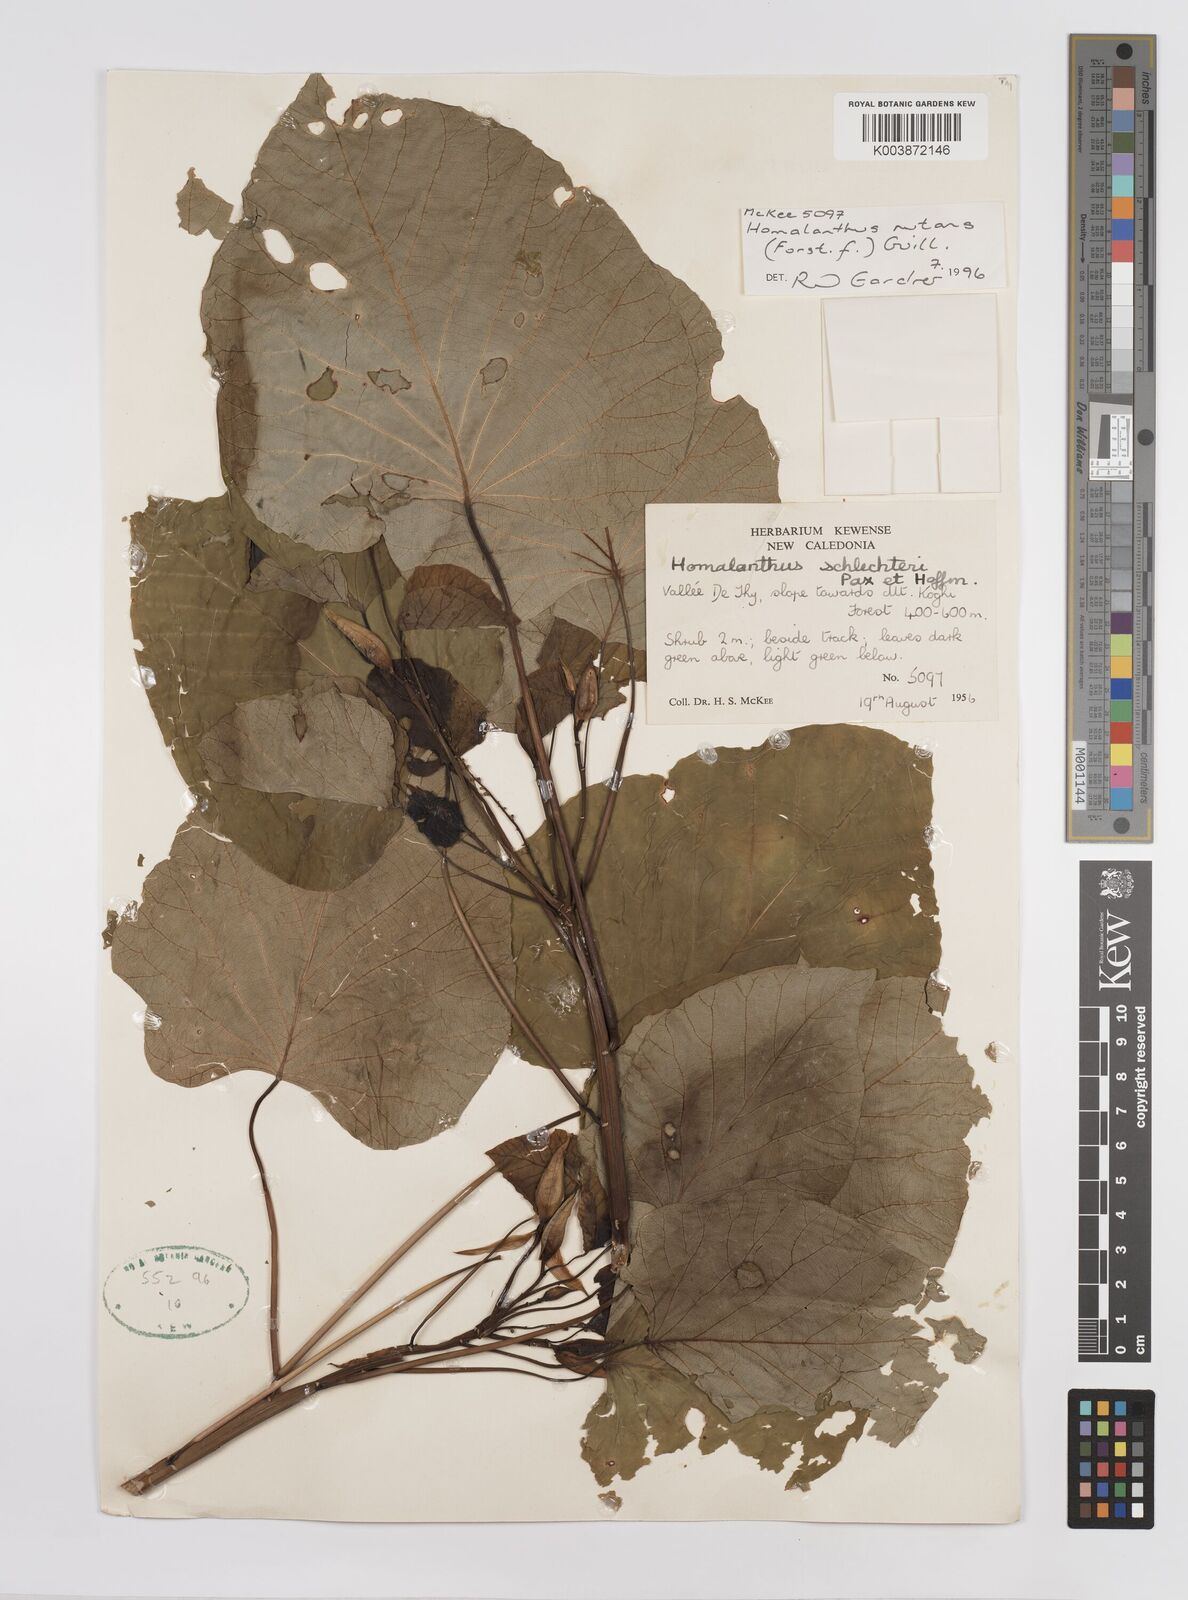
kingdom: Plantae
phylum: Tracheophyta
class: Magnoliopsida
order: Malpighiales
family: Euphorbiaceae
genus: Homalanthus
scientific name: Homalanthus nutans
